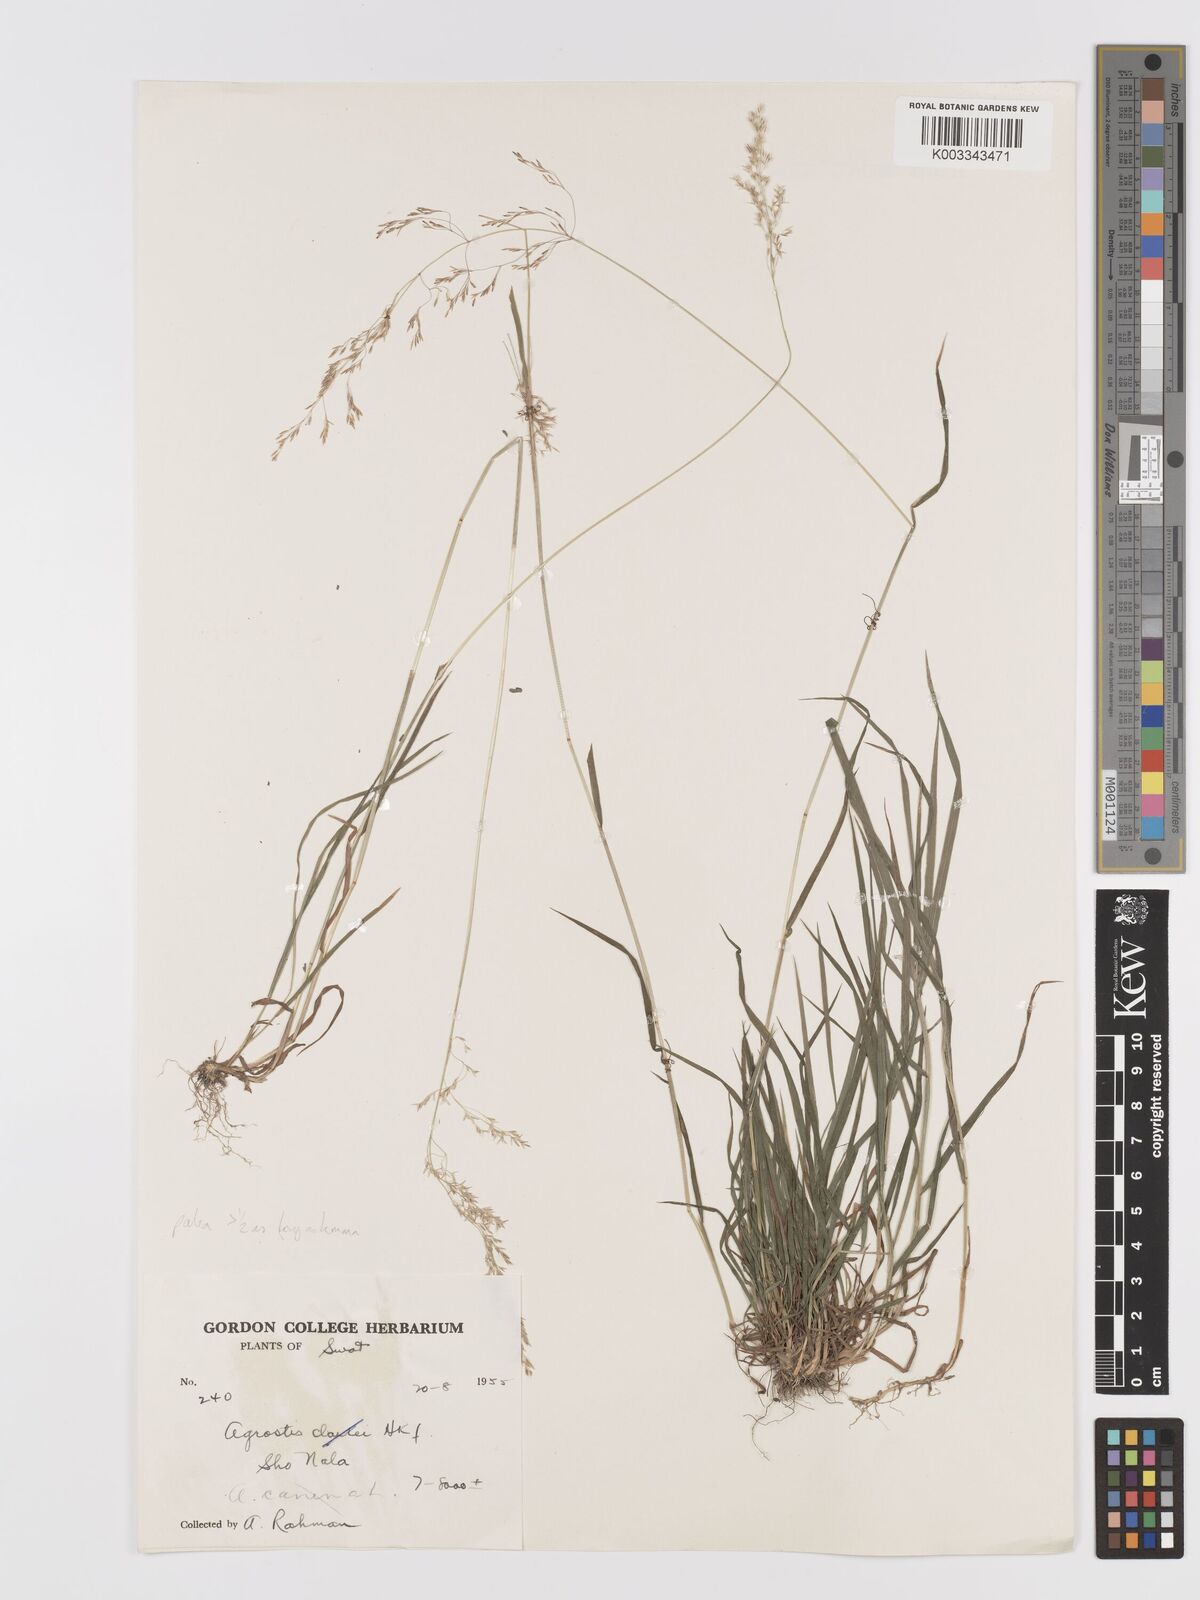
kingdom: Plantae
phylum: Tracheophyta
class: Liliopsida
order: Poales
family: Poaceae
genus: Agrostis
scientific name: Agrostis stolonifera
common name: Creeping bentgrass
